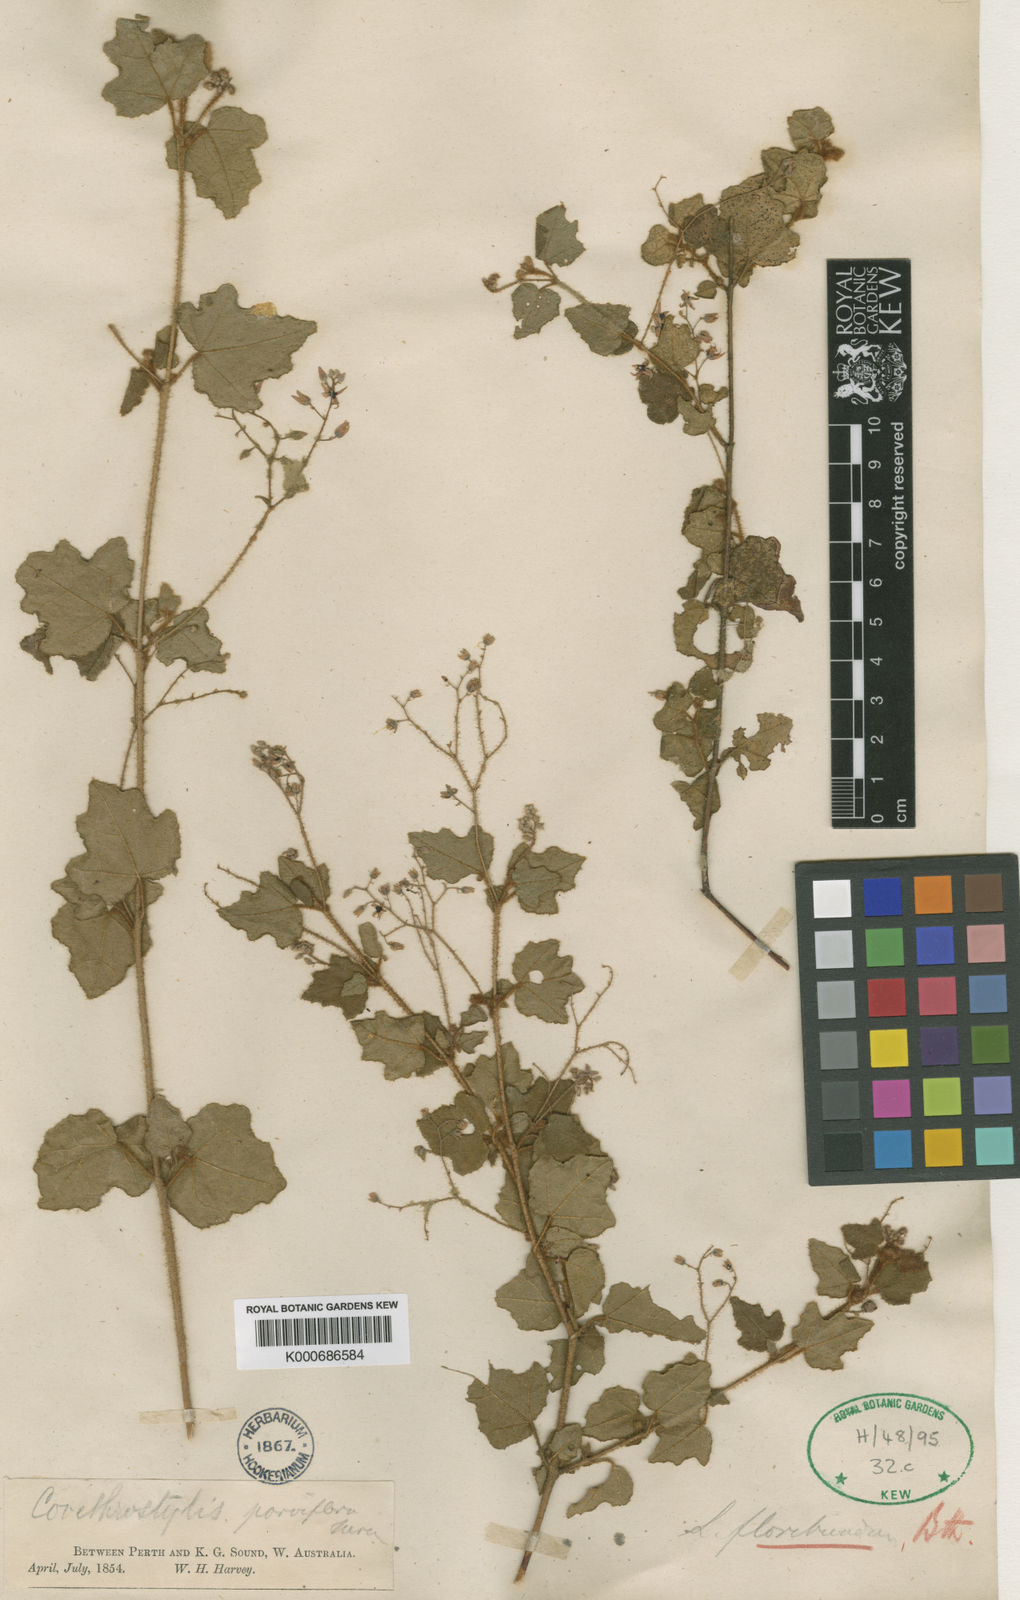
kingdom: Plantae
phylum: Tracheophyta
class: Magnoliopsida
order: Malvales
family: Malvaceae
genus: Lasiopetalum
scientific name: Lasiopetalum floribundum
